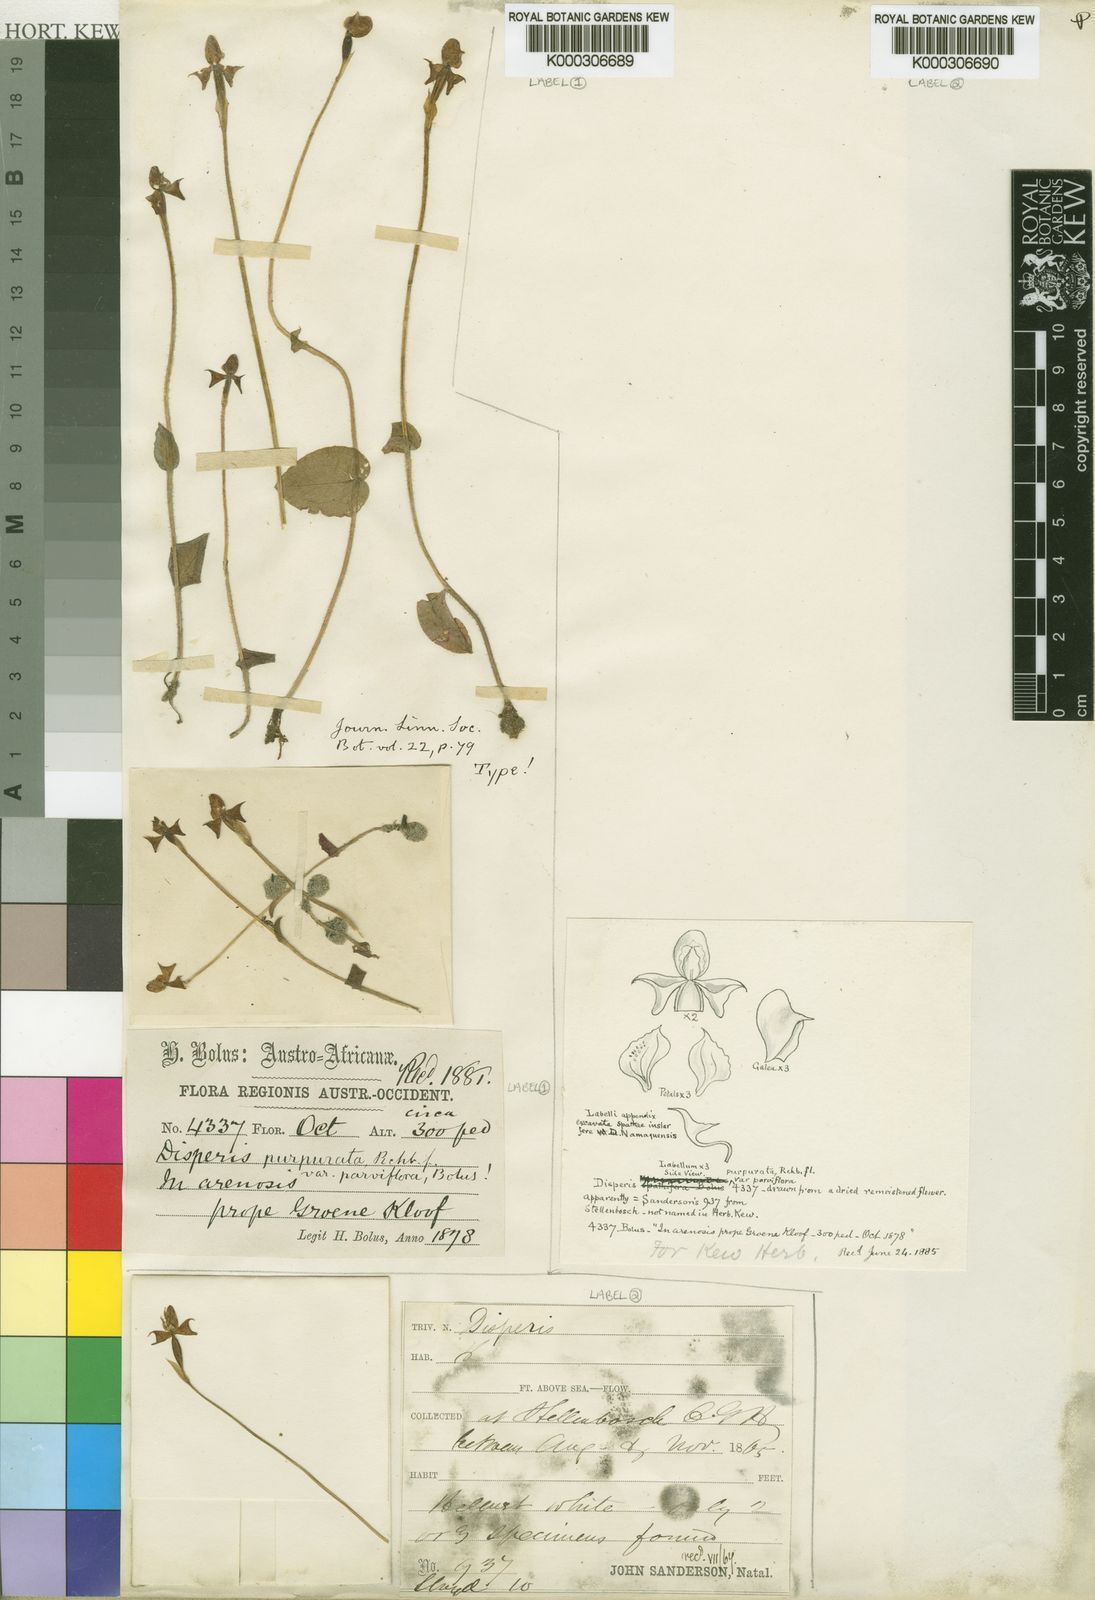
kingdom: Plantae
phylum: Tracheophyta
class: Liliopsida
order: Asparagales
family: Orchidaceae
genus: Disperis
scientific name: Disperis
